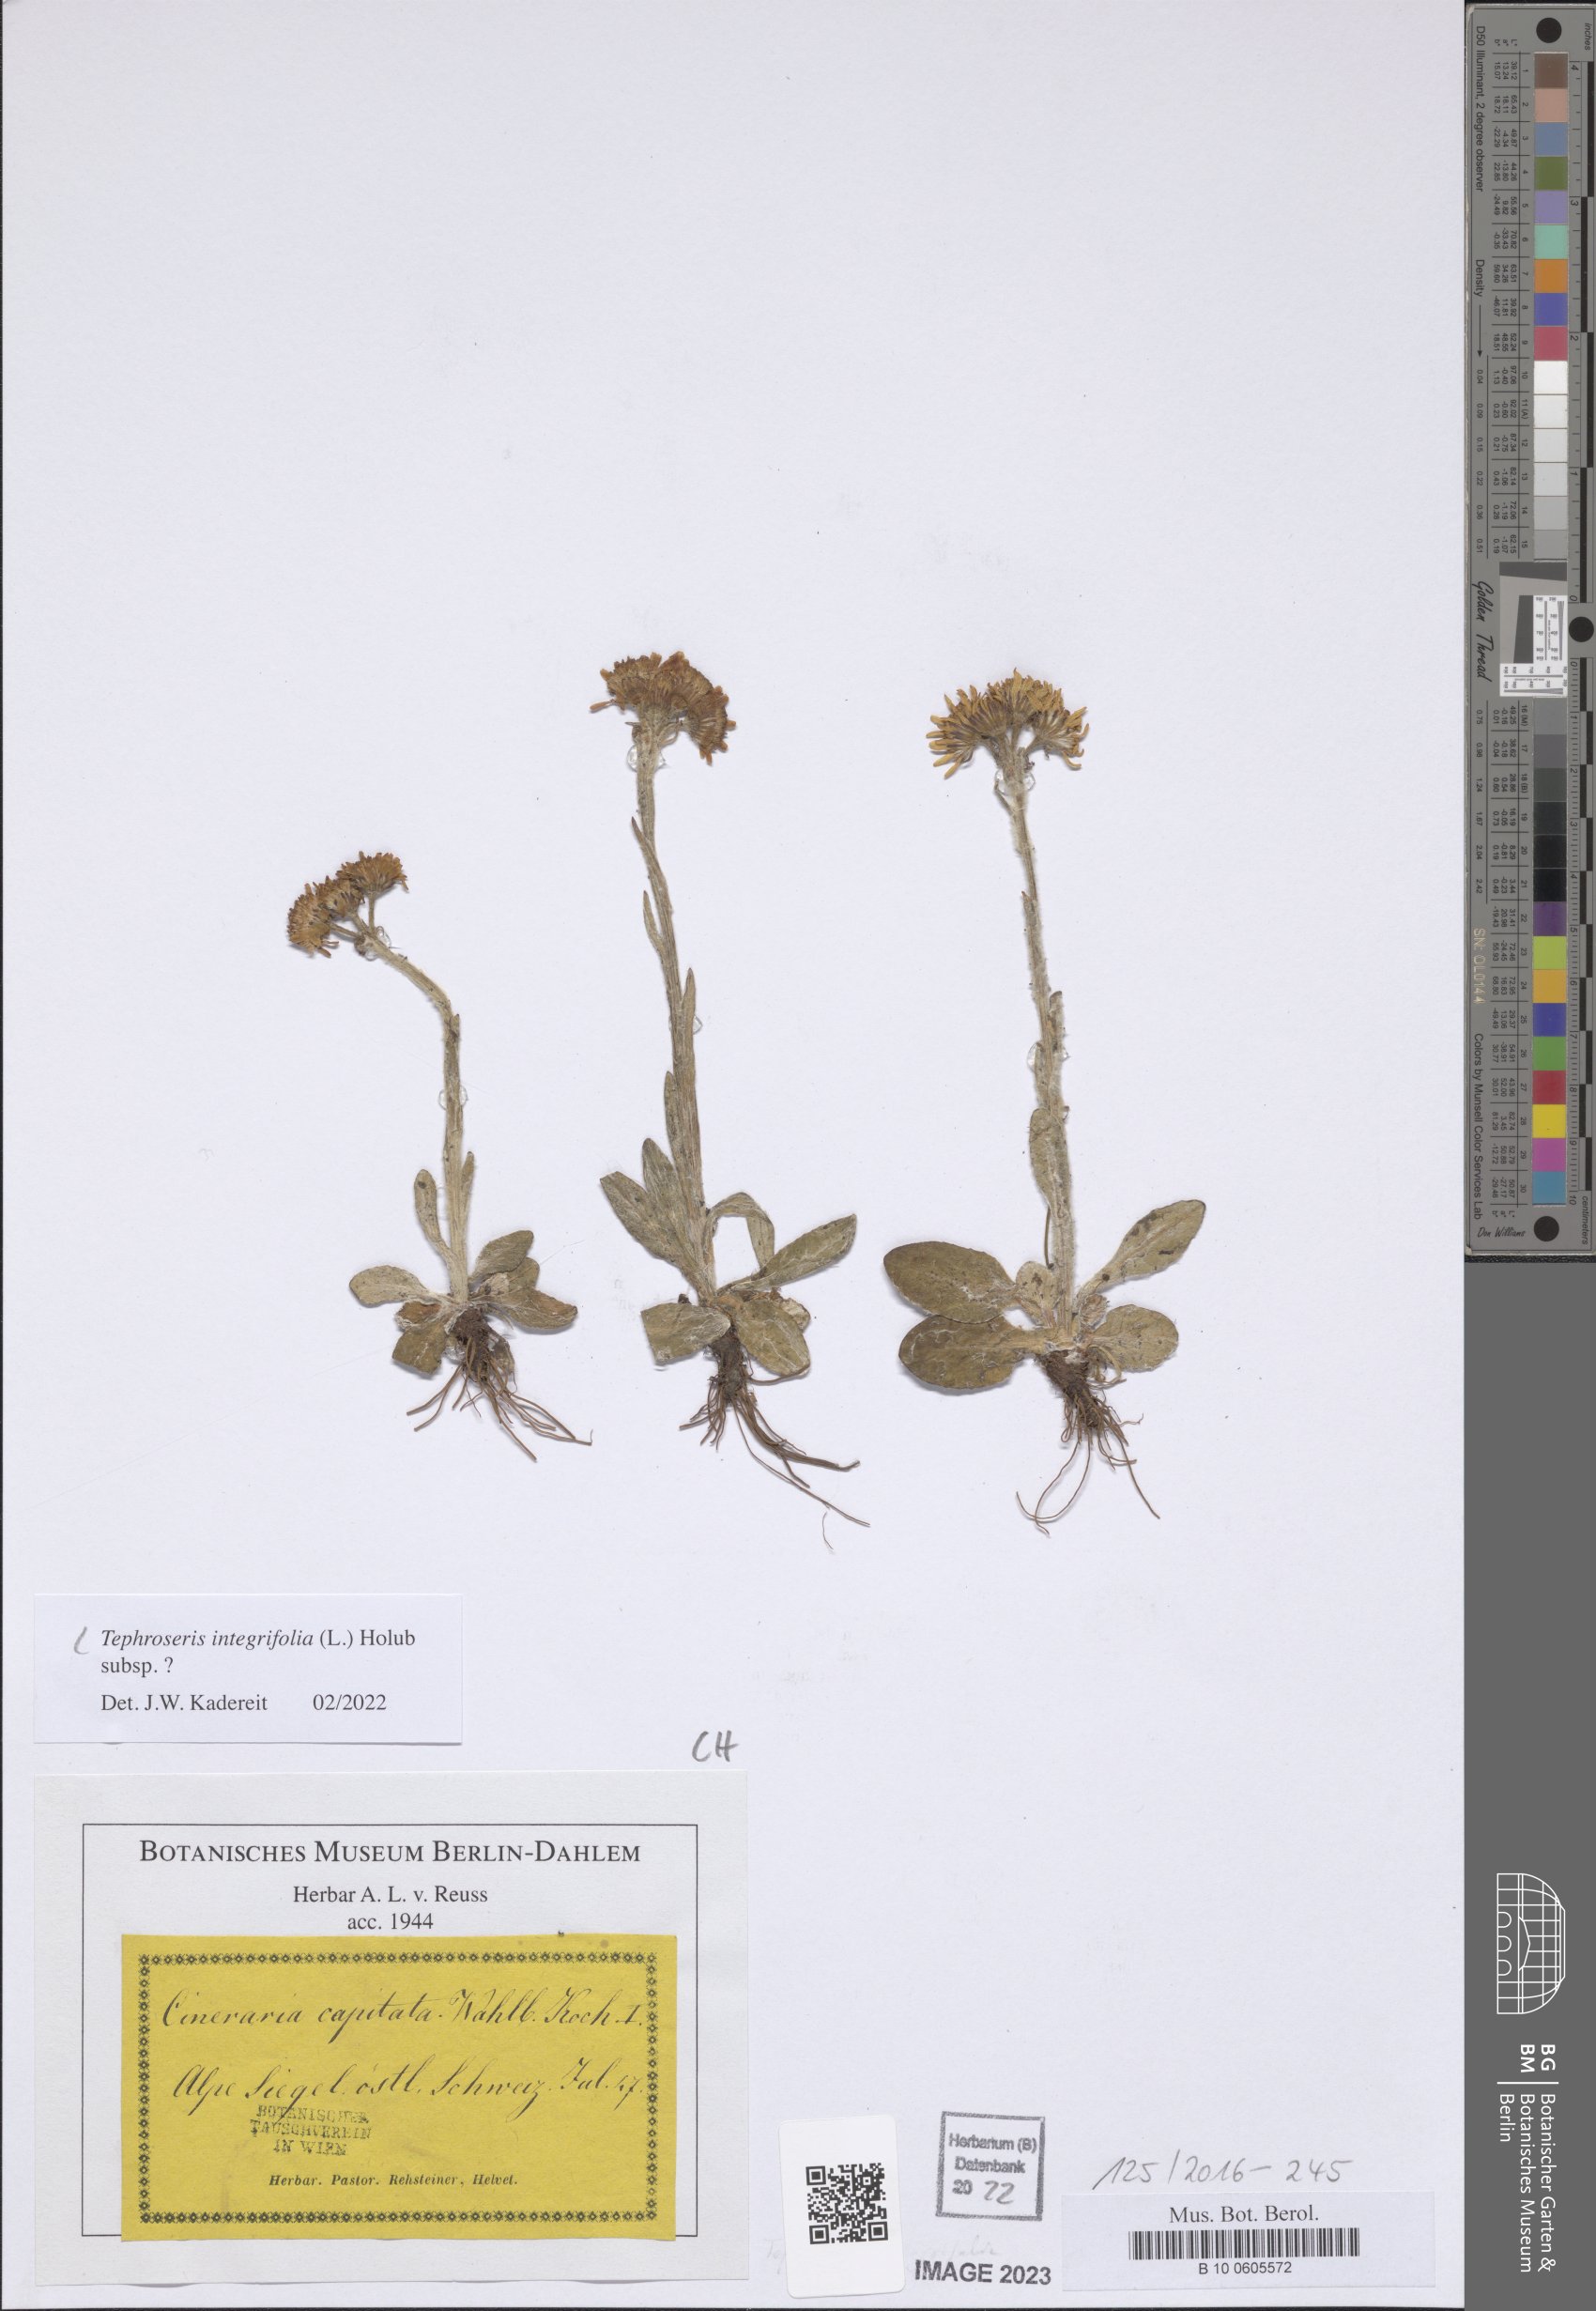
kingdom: Plantae
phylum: Tracheophyta
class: Magnoliopsida
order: Asterales
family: Asteraceae
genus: Tephroseris
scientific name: Tephroseris integrifolia
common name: Field fleawort
